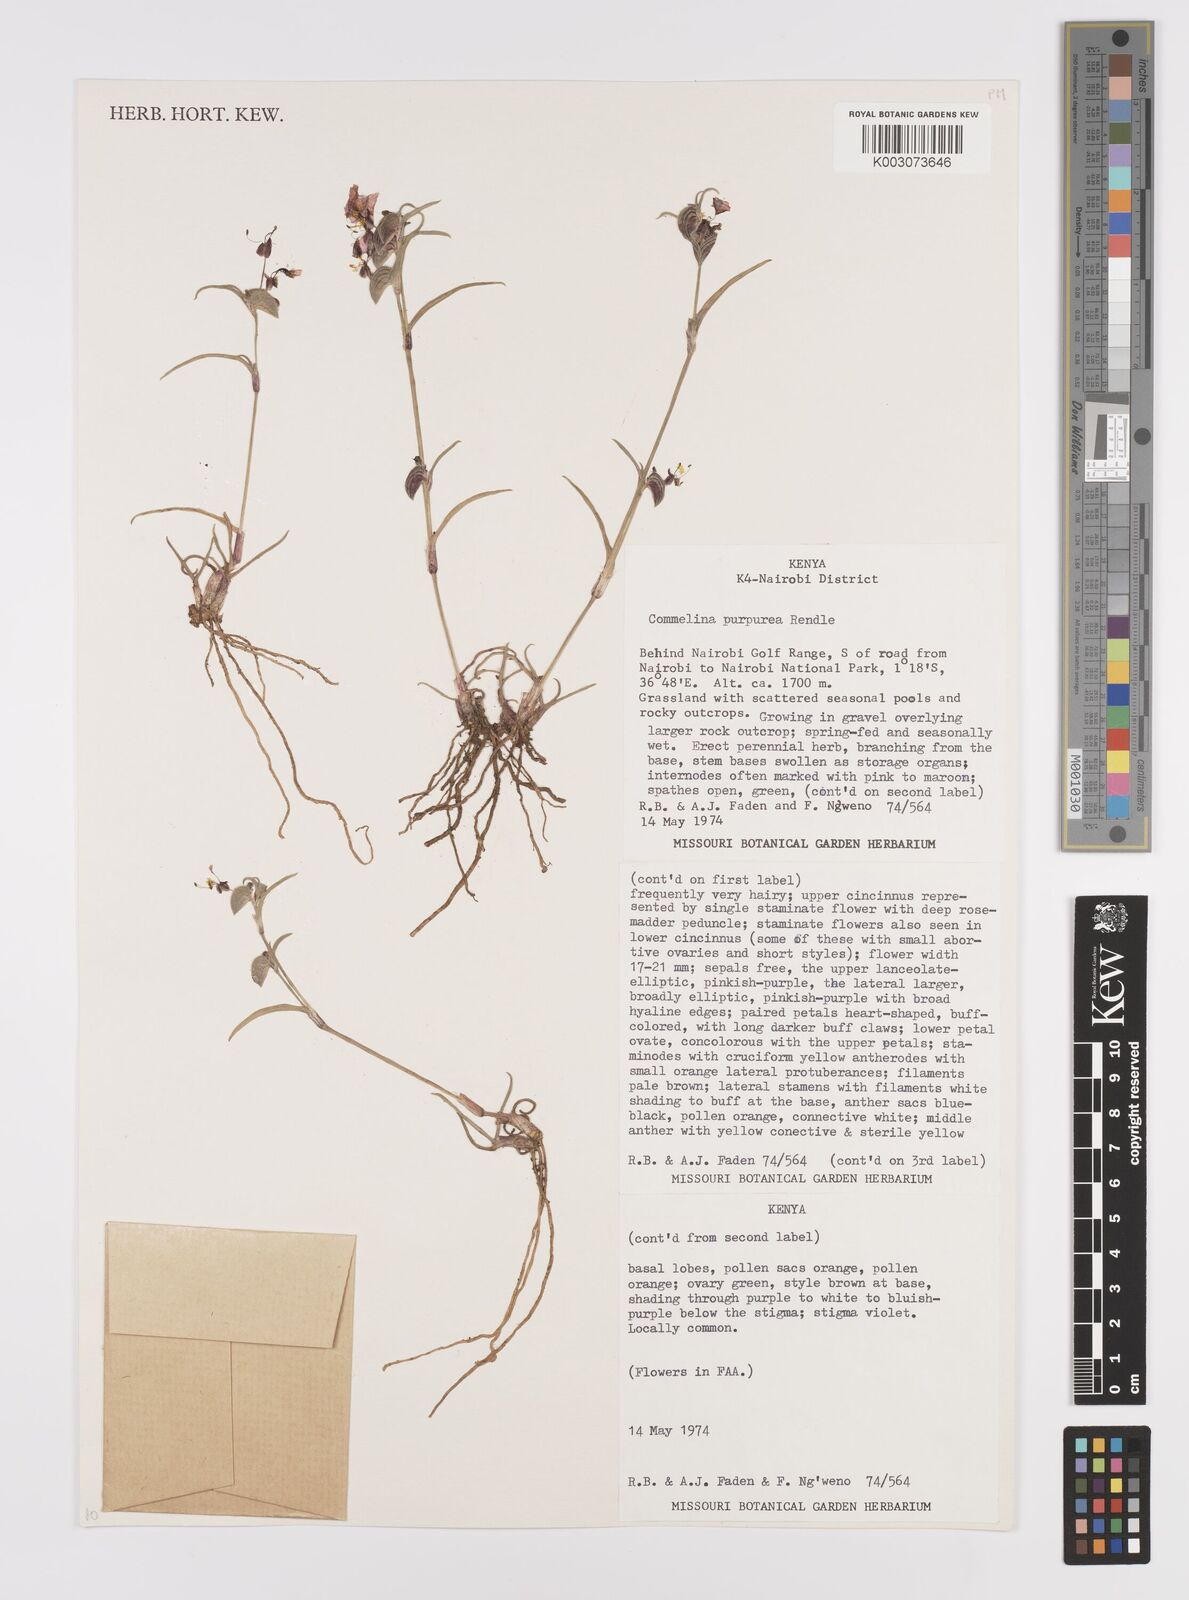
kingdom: Plantae
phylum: Tracheophyta
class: Liliopsida
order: Commelinales
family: Commelinaceae
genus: Commelina
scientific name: Commelina purpurea
